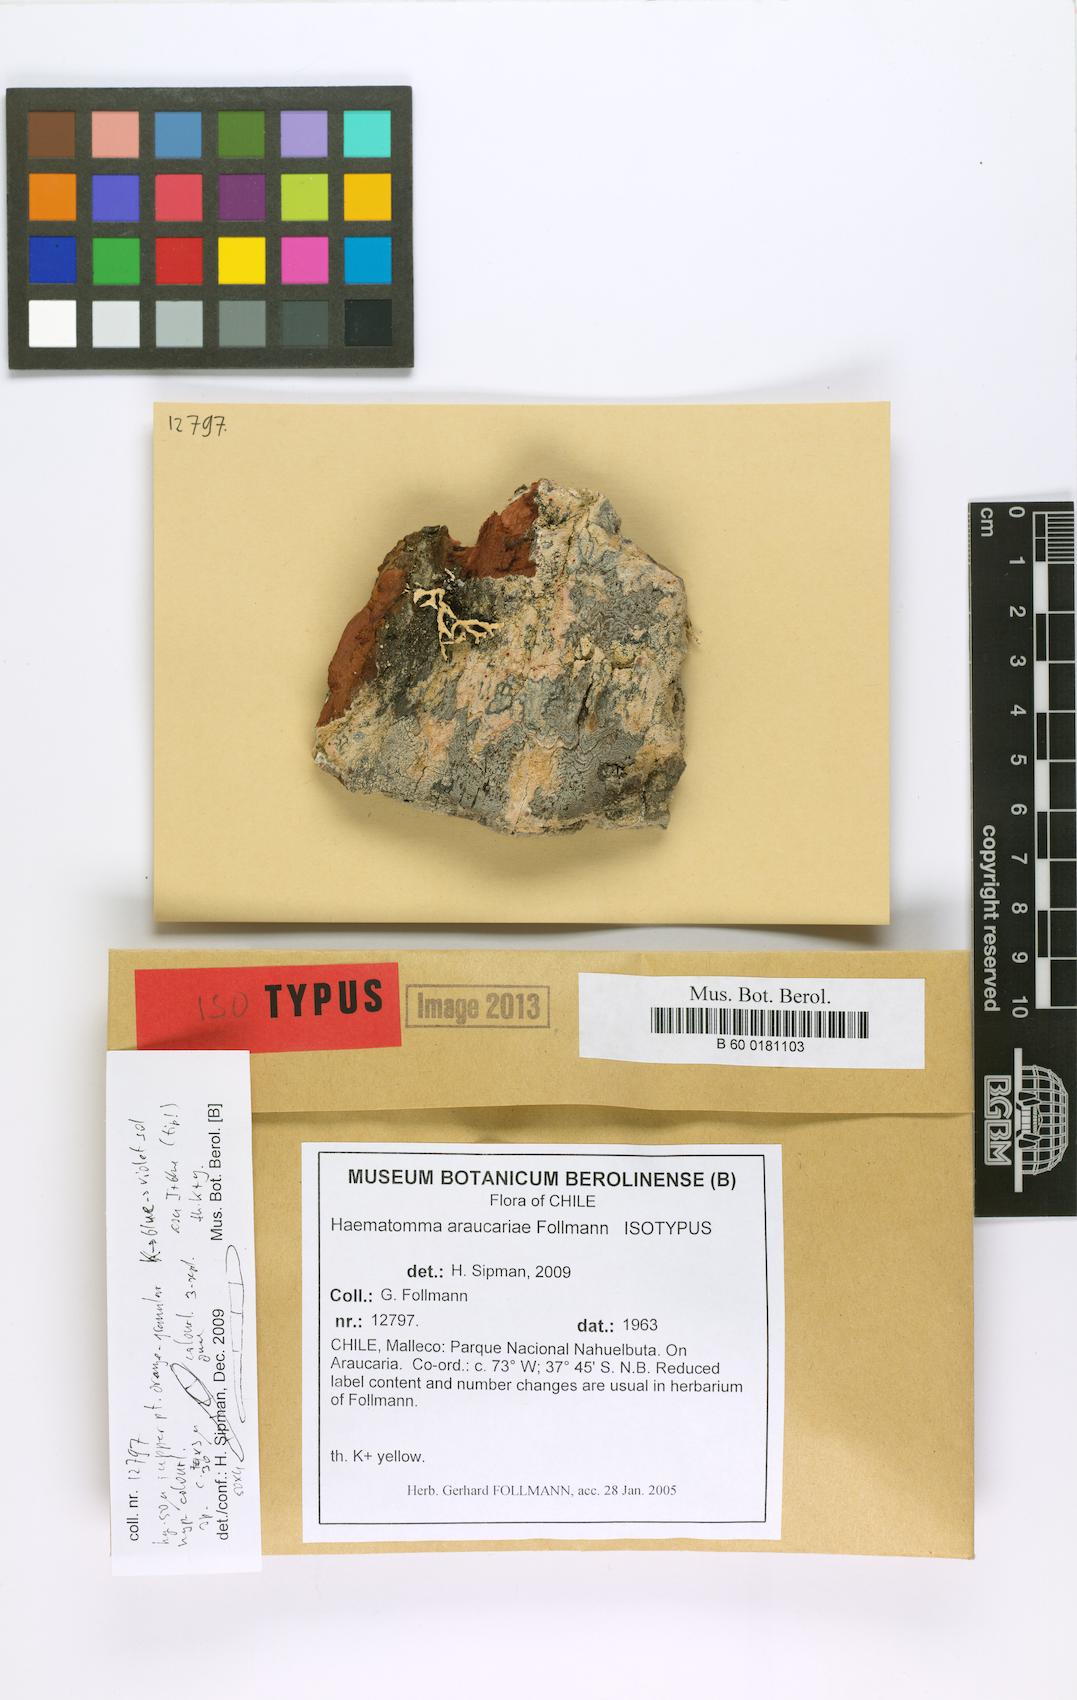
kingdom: Fungi
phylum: Ascomycota
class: Lecanoromycetes
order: Lecanorales
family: Haematommataceae
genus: Haematomma
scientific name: Haematomma
